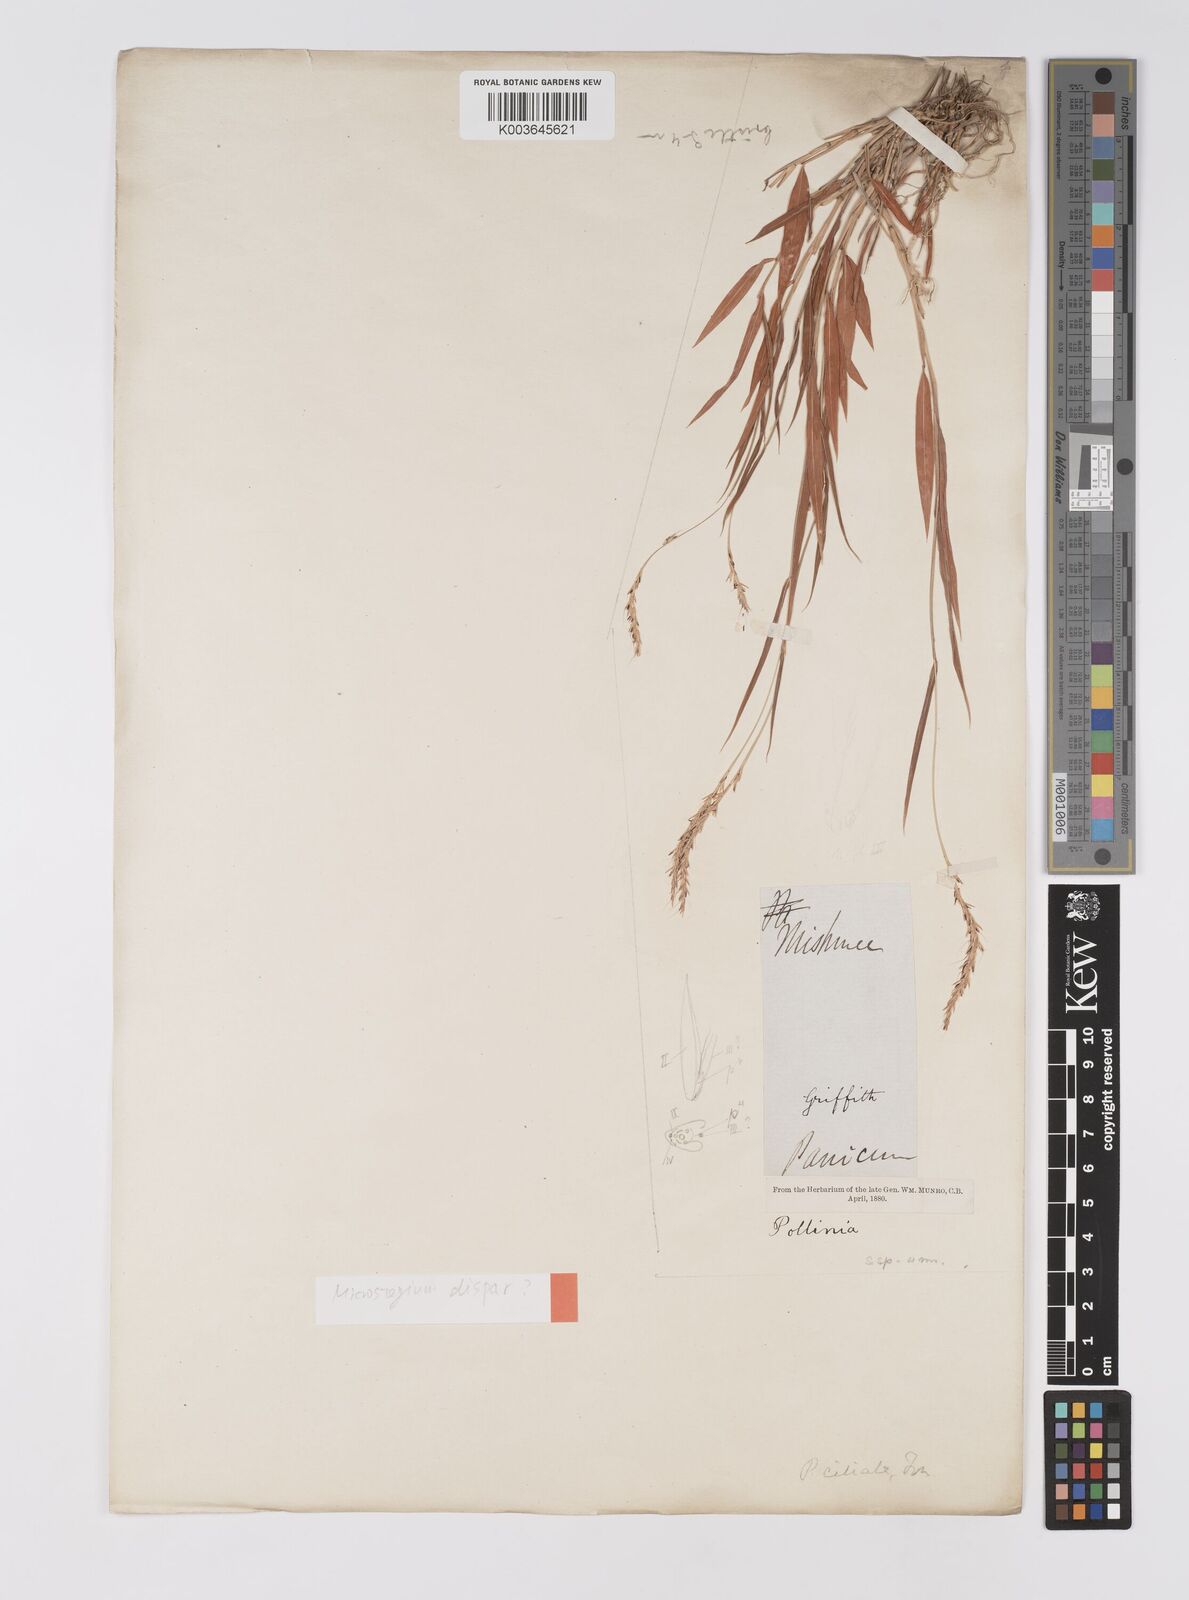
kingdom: Plantae
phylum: Tracheophyta
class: Liliopsida
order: Poales
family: Poaceae
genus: Microstegium
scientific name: Microstegium fasciculatum
